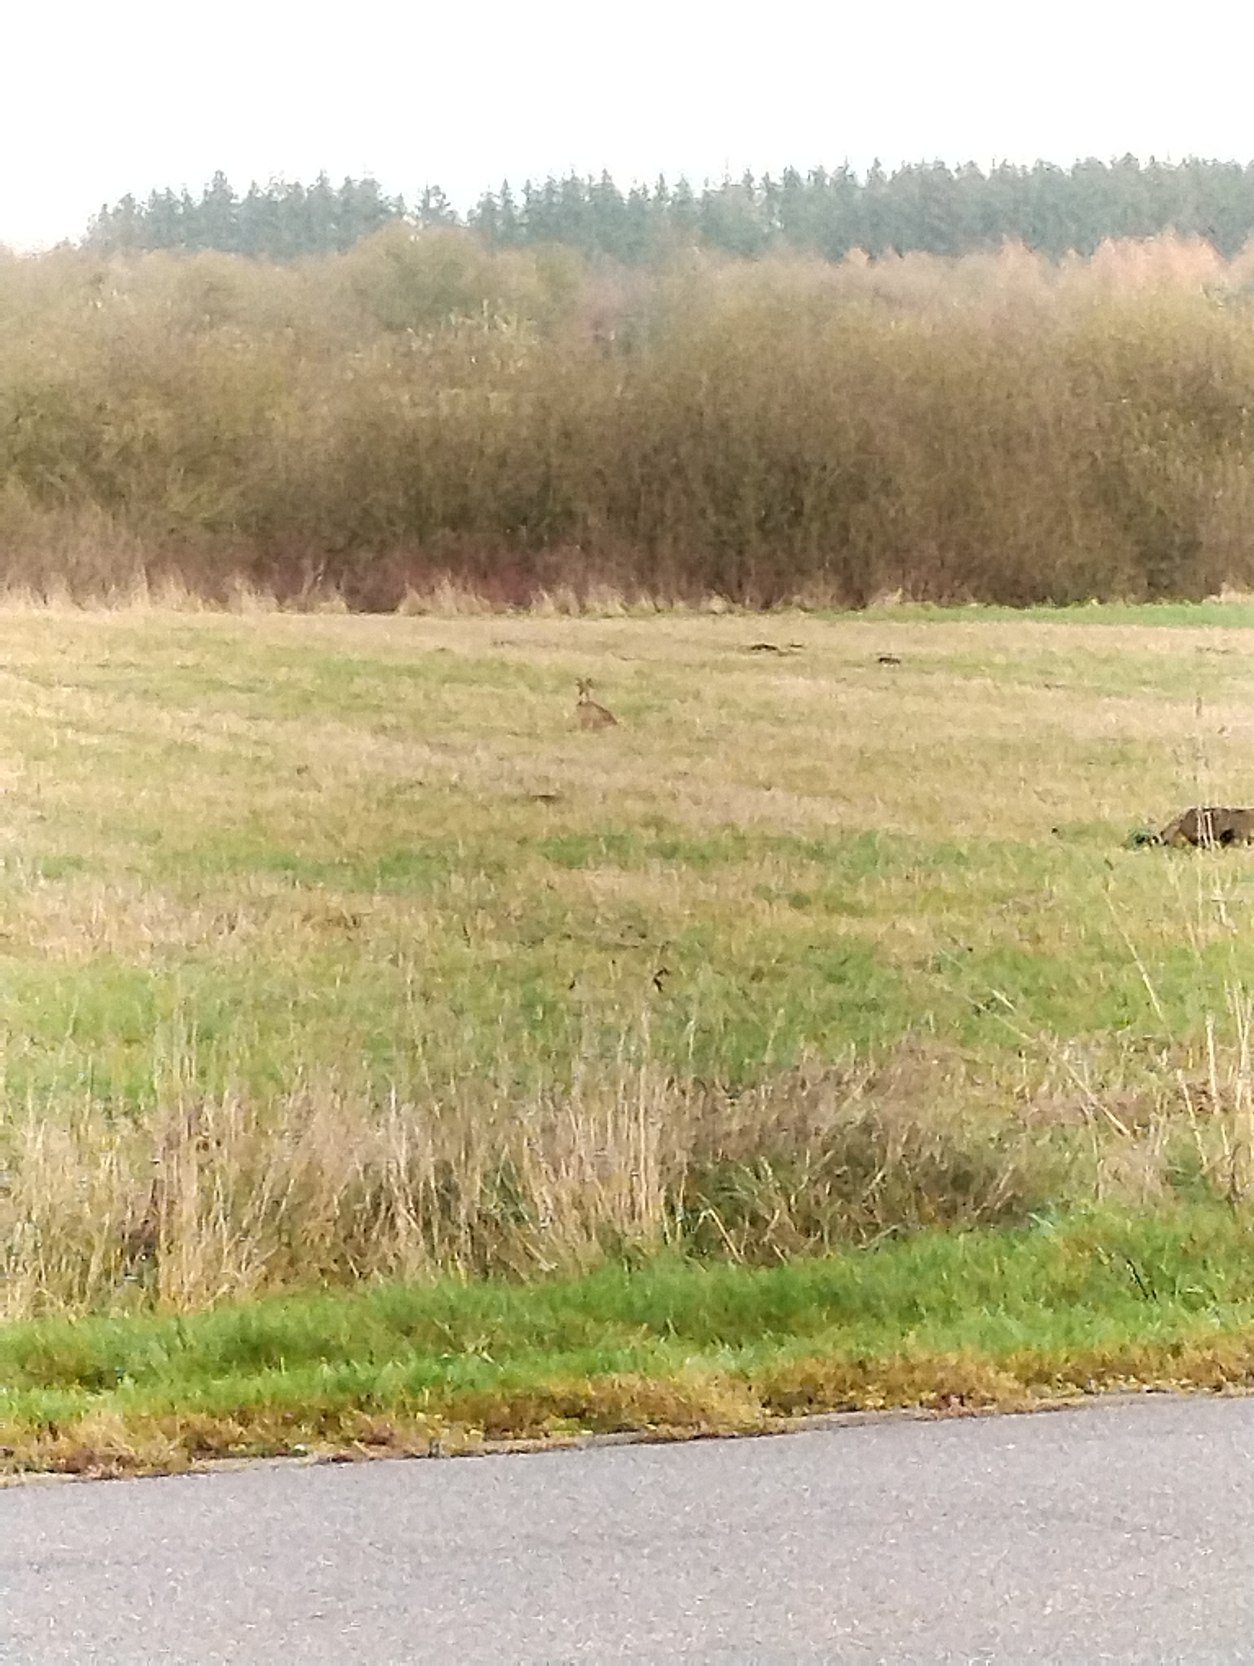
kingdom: Animalia
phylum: Chordata
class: Mammalia
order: Lagomorpha
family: Leporidae
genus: Lepus
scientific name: Lepus europaeus
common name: Hare
